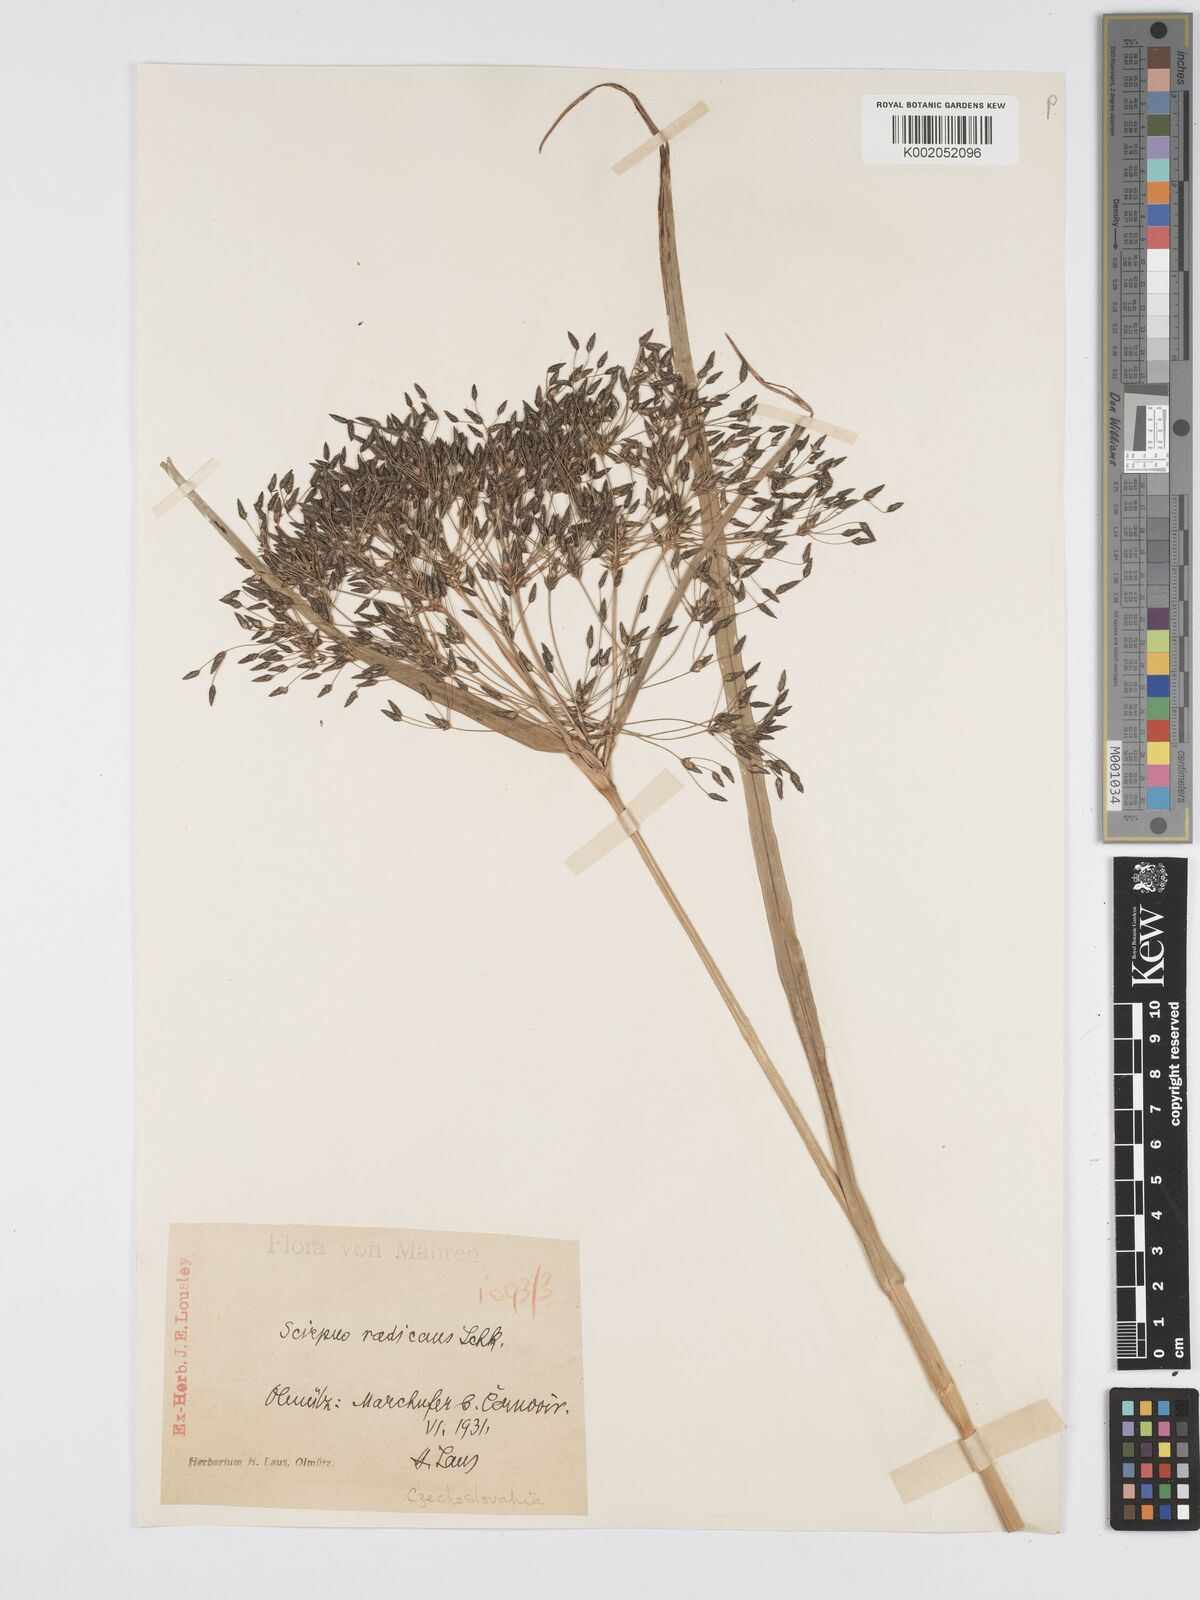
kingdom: Plantae
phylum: Tracheophyta
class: Liliopsida
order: Poales
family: Cyperaceae
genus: Scirpus
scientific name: Scirpus radicans
